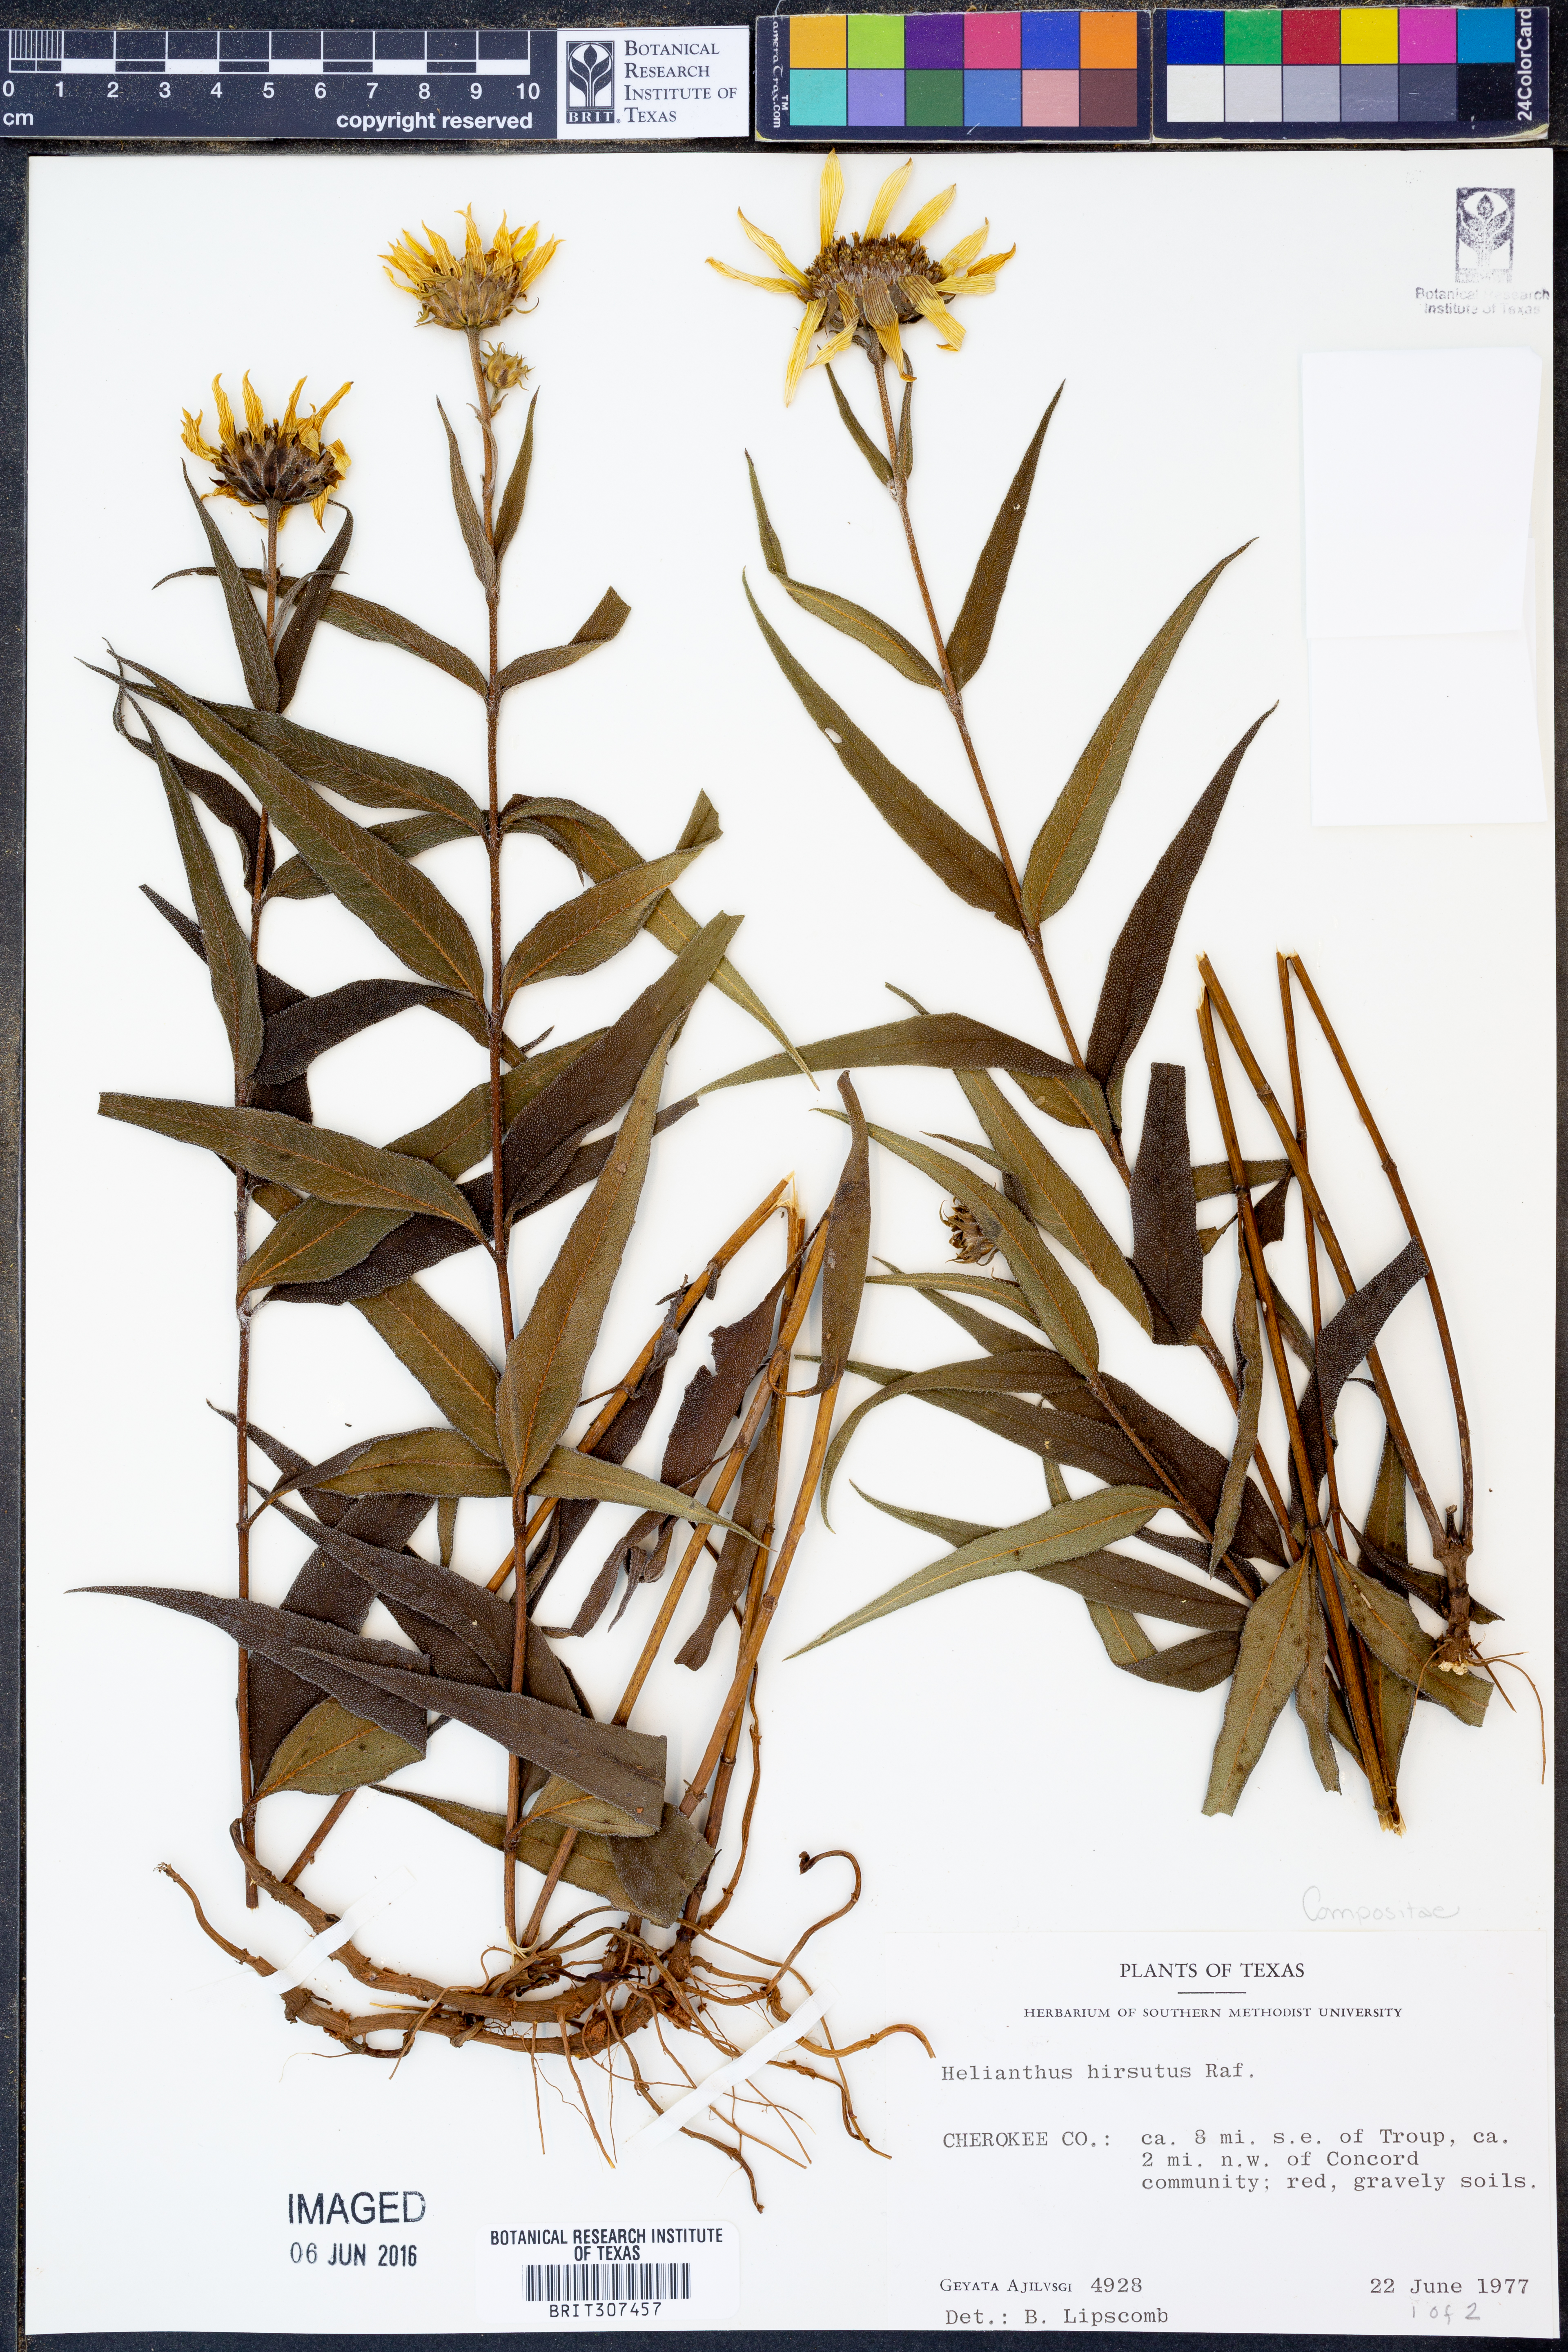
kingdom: Plantae
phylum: Tracheophyta
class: Magnoliopsida
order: Asterales
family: Asteraceae
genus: Helianthus
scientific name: Helianthus hirsutus
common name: Hairy sunflower
